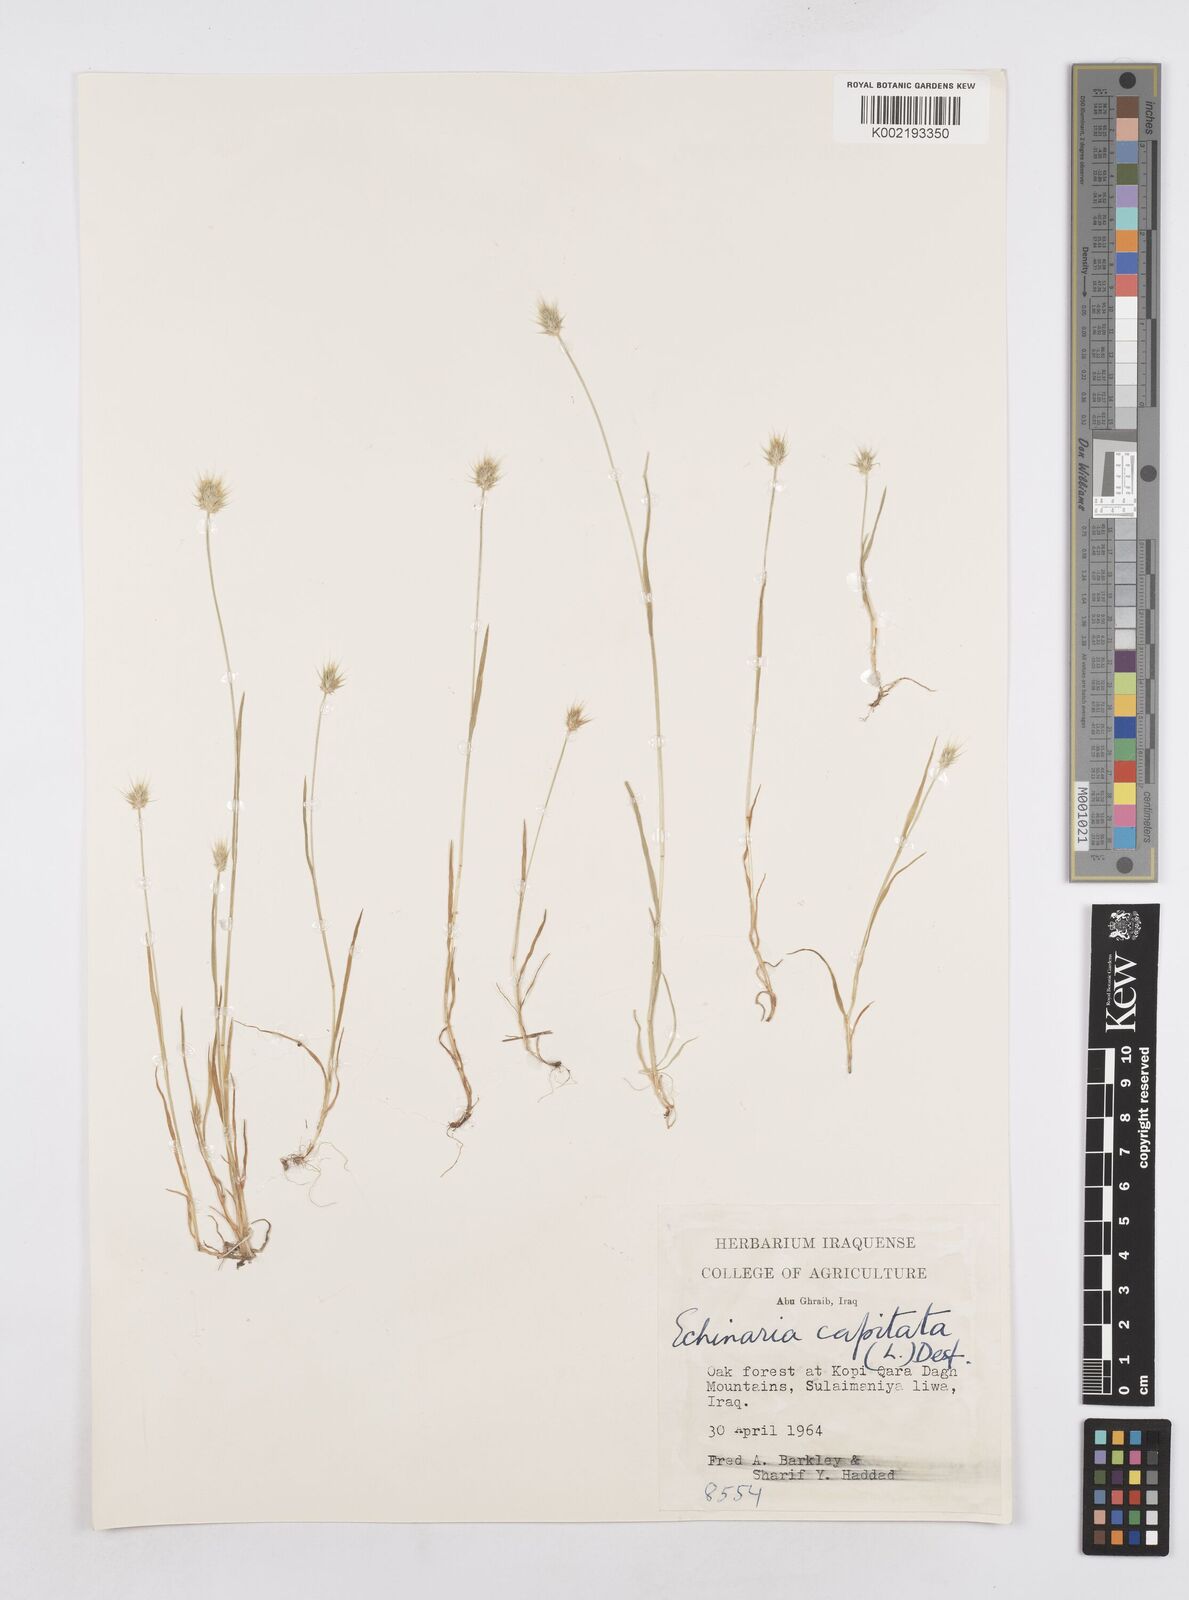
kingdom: Plantae
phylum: Tracheophyta
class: Liliopsida
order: Poales
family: Poaceae
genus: Echinaria
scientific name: Echinaria capitata
